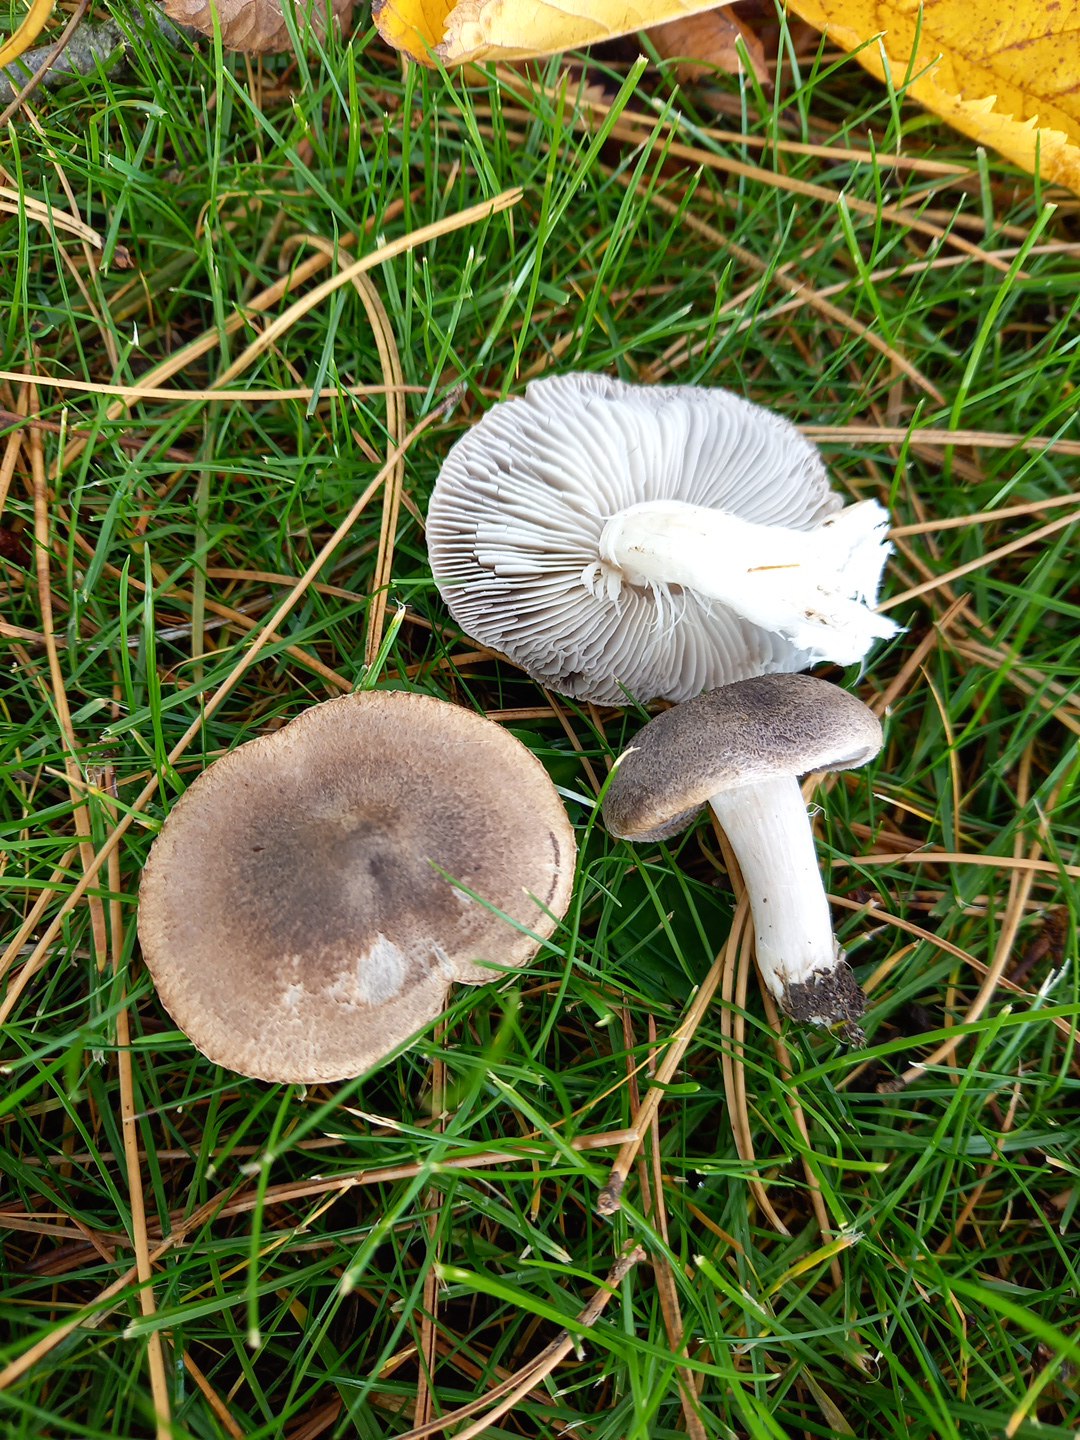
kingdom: Fungi
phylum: Basidiomycota
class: Agaricomycetes
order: Agaricales
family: Tricholomataceae
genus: Tricholoma
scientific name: Tricholoma terreum
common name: jordfarvet ridderhat
